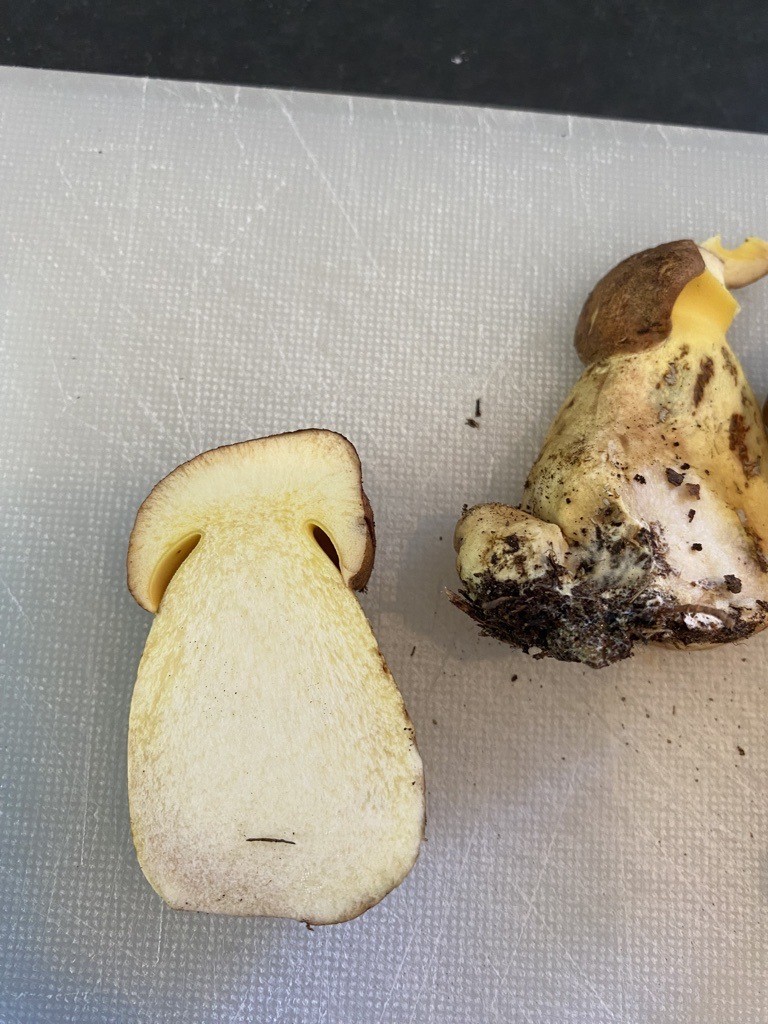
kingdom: Fungi
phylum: Basidiomycota
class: Agaricomycetes
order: Boletales
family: Boletaceae
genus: Butyriboletus
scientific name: Butyriboletus
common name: smørrørhat
